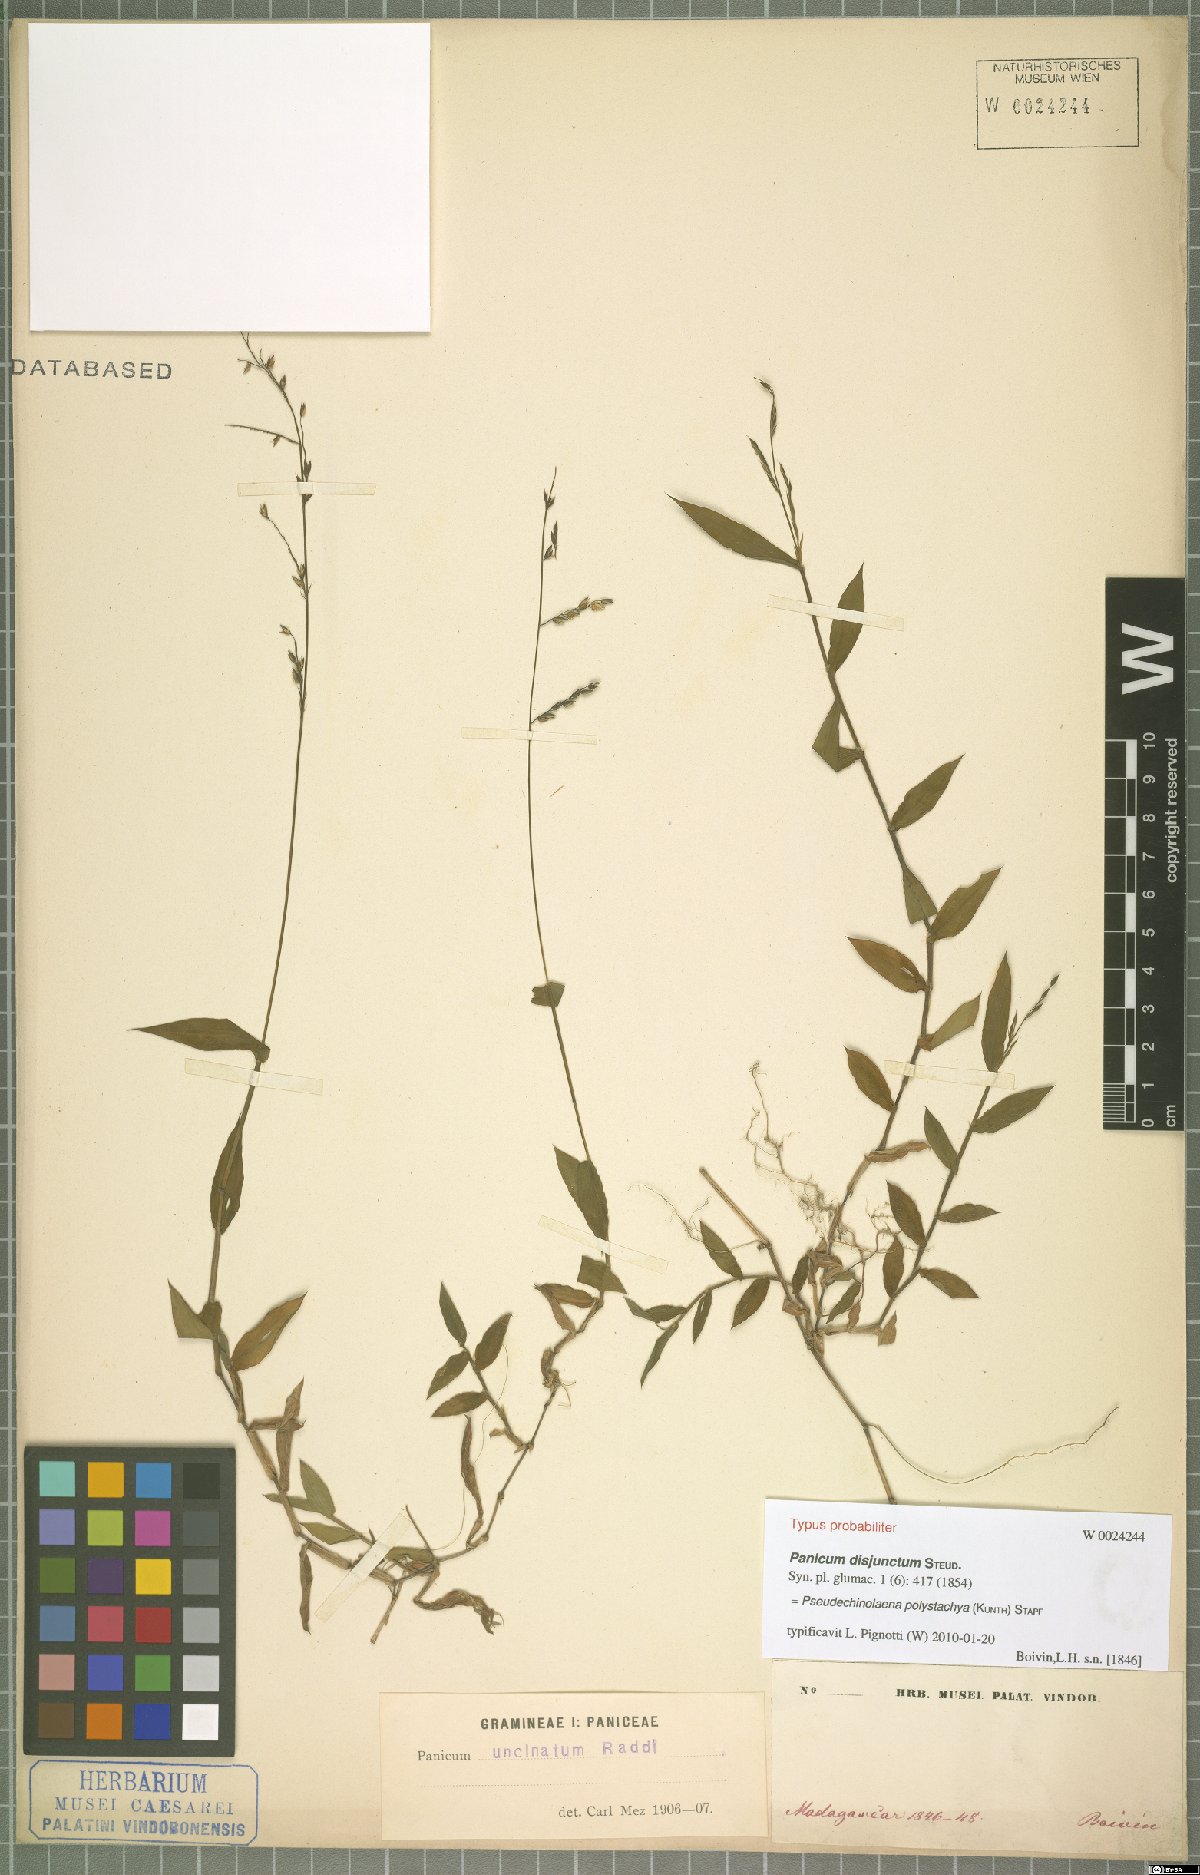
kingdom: Plantae
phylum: Tracheophyta
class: Liliopsida
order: Poales
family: Poaceae
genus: Pseudechinolaena
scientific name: Pseudechinolaena polystachya
